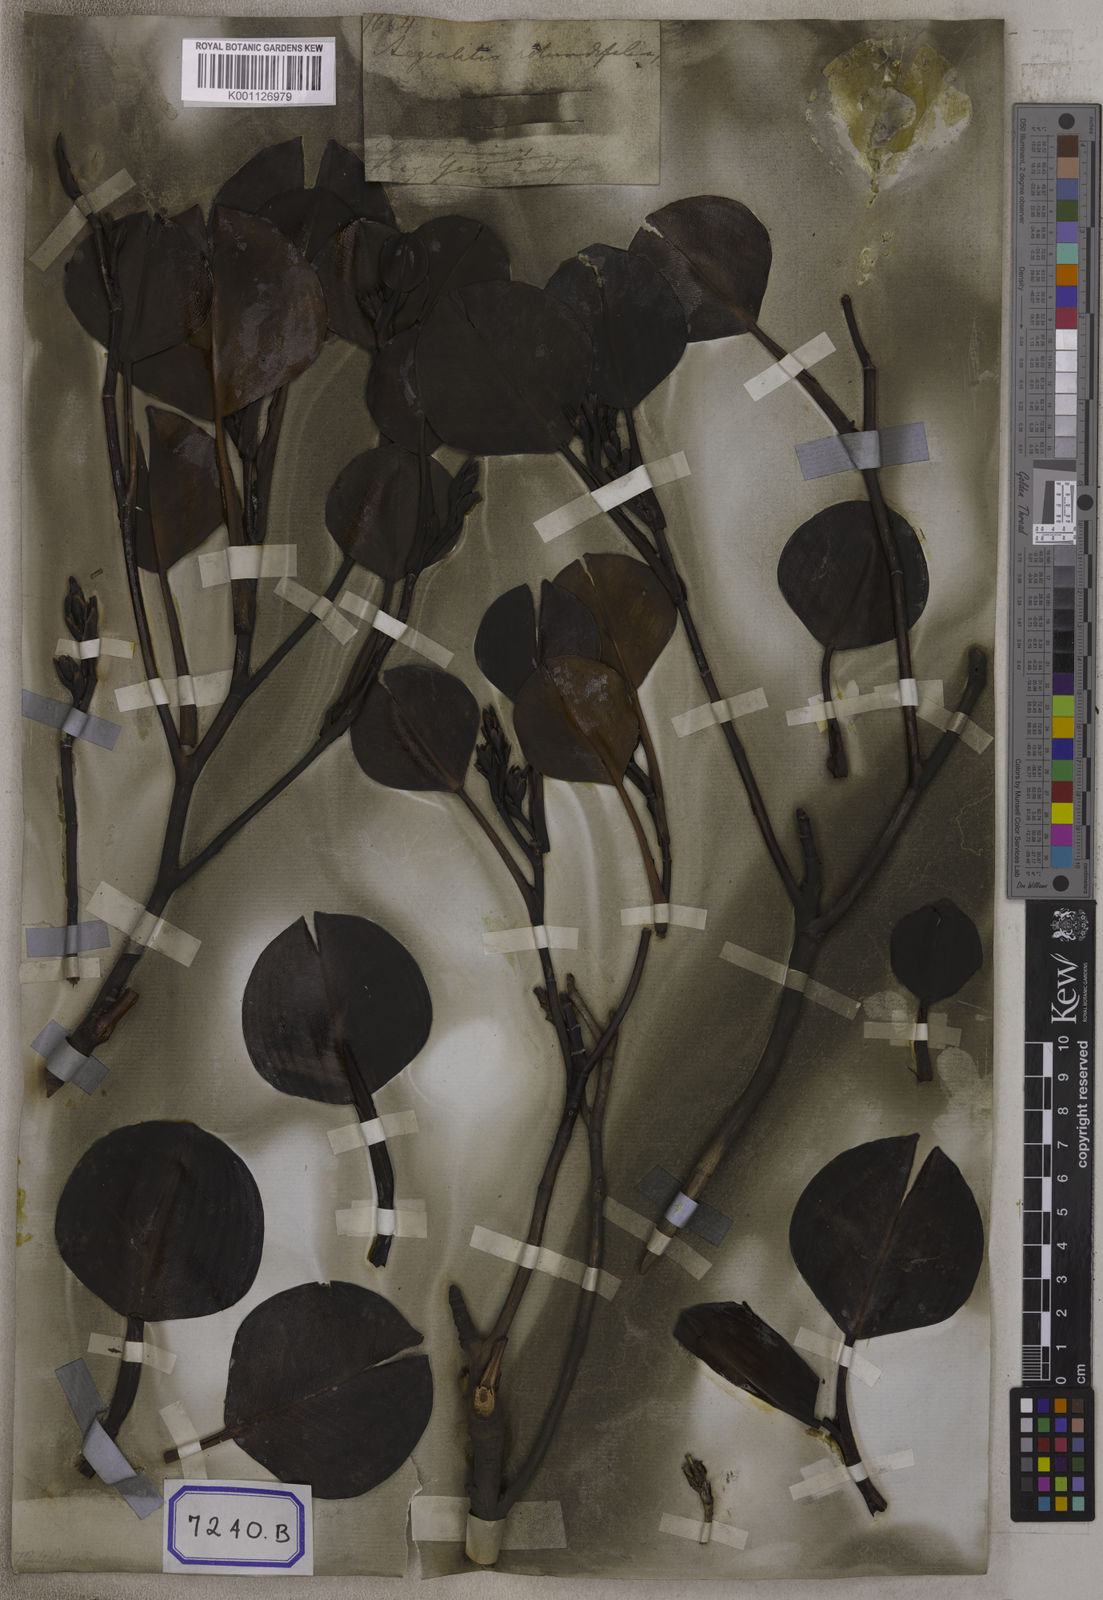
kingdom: Plantae
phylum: Tracheophyta
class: Magnoliopsida
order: Caryophyllales
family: Plumbaginaceae
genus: Aegialitis
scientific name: Aegialitis rotundifolia
